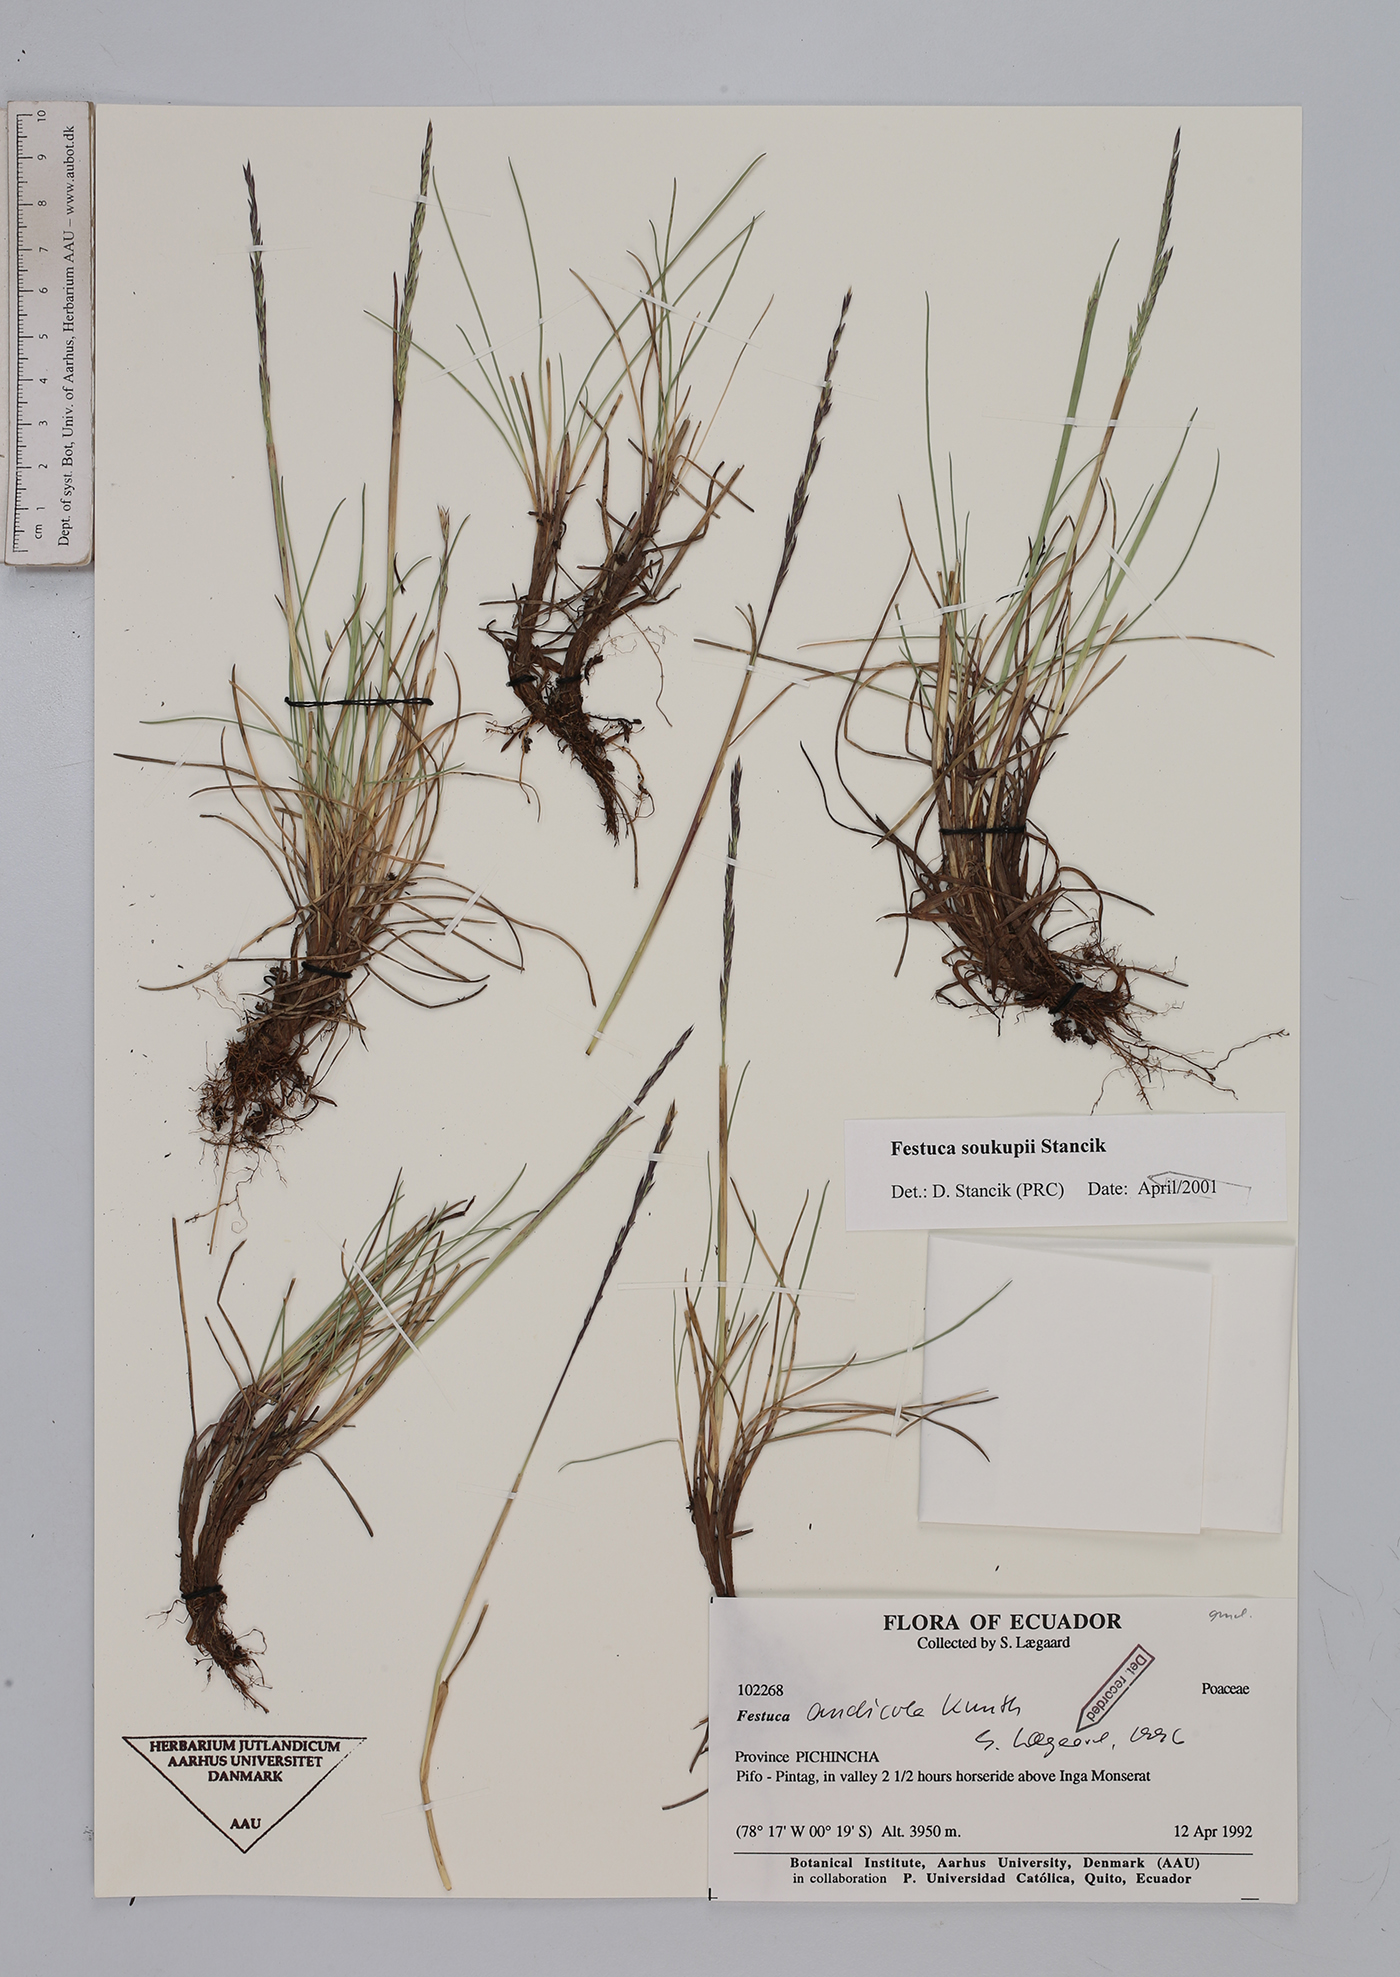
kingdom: Plantae
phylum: Tracheophyta
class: Liliopsida
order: Poales
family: Poaceae
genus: Festuca
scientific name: Festuca soukupii
